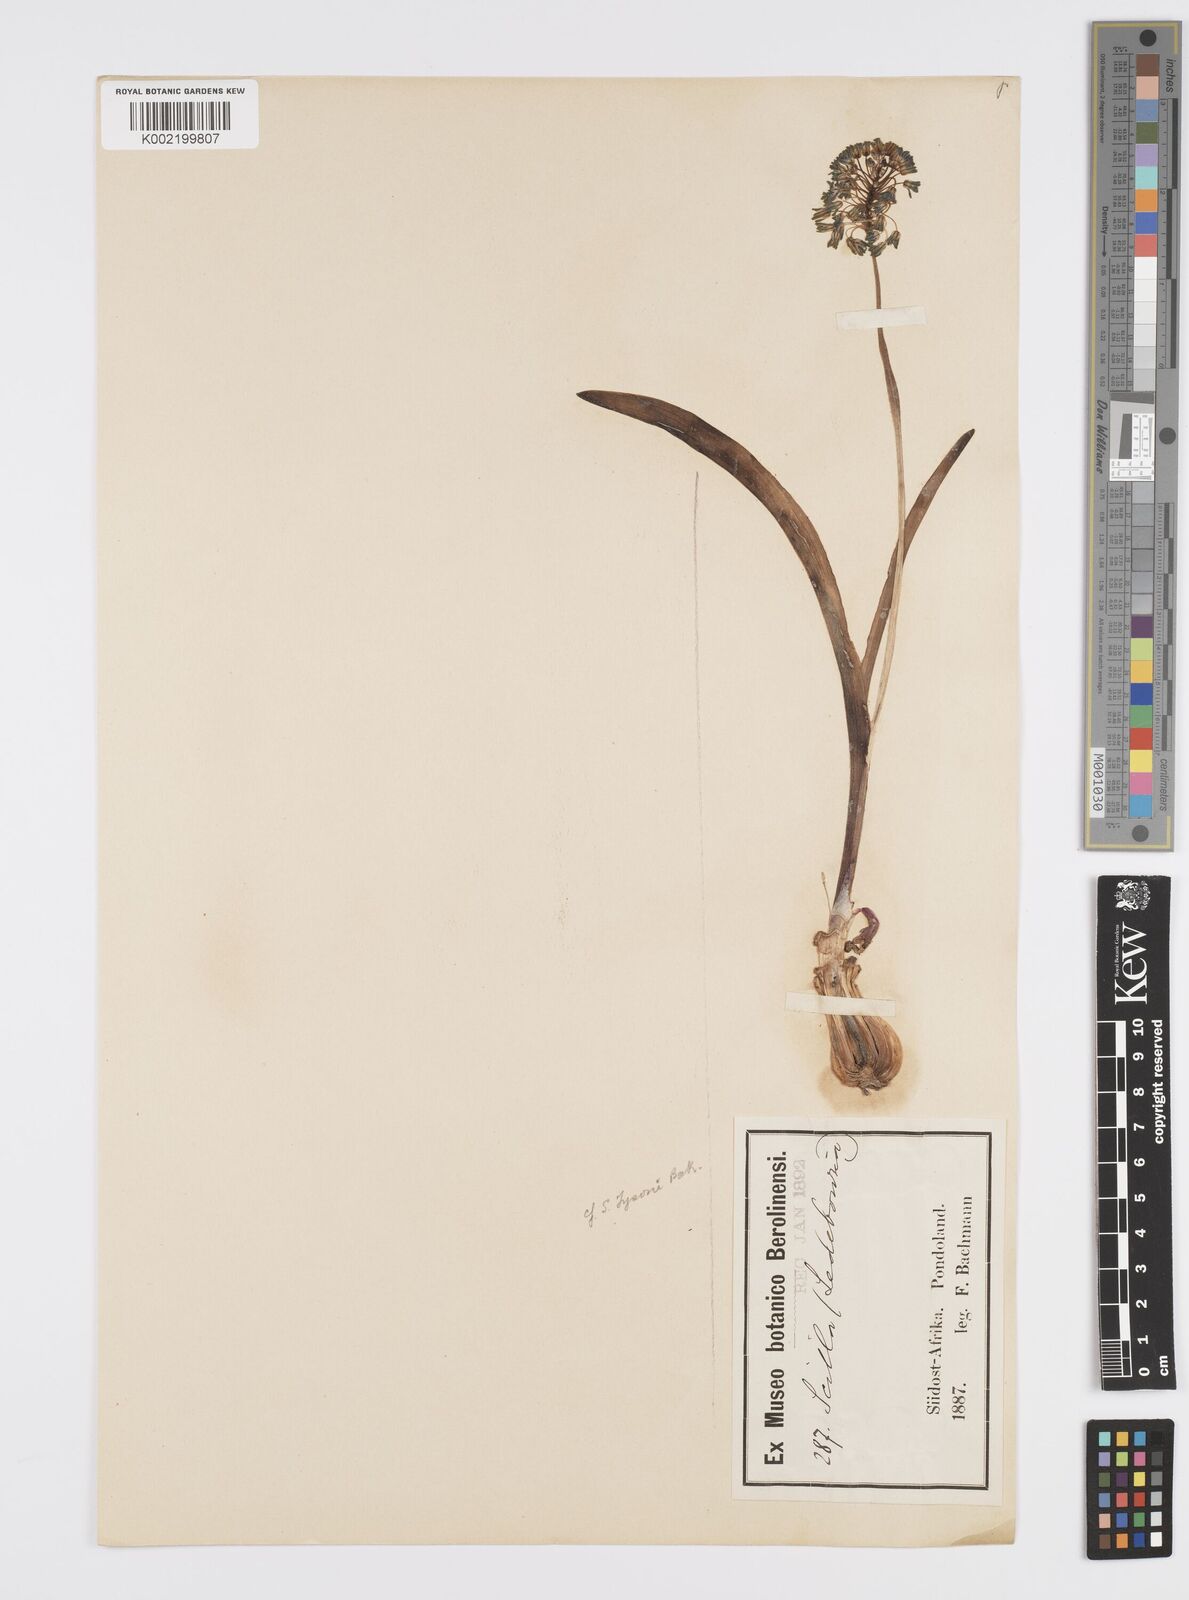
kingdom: Plantae
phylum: Tracheophyta
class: Liliopsida
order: Asparagales
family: Asparagaceae
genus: Ledebouria
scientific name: Ledebouria cooperi
